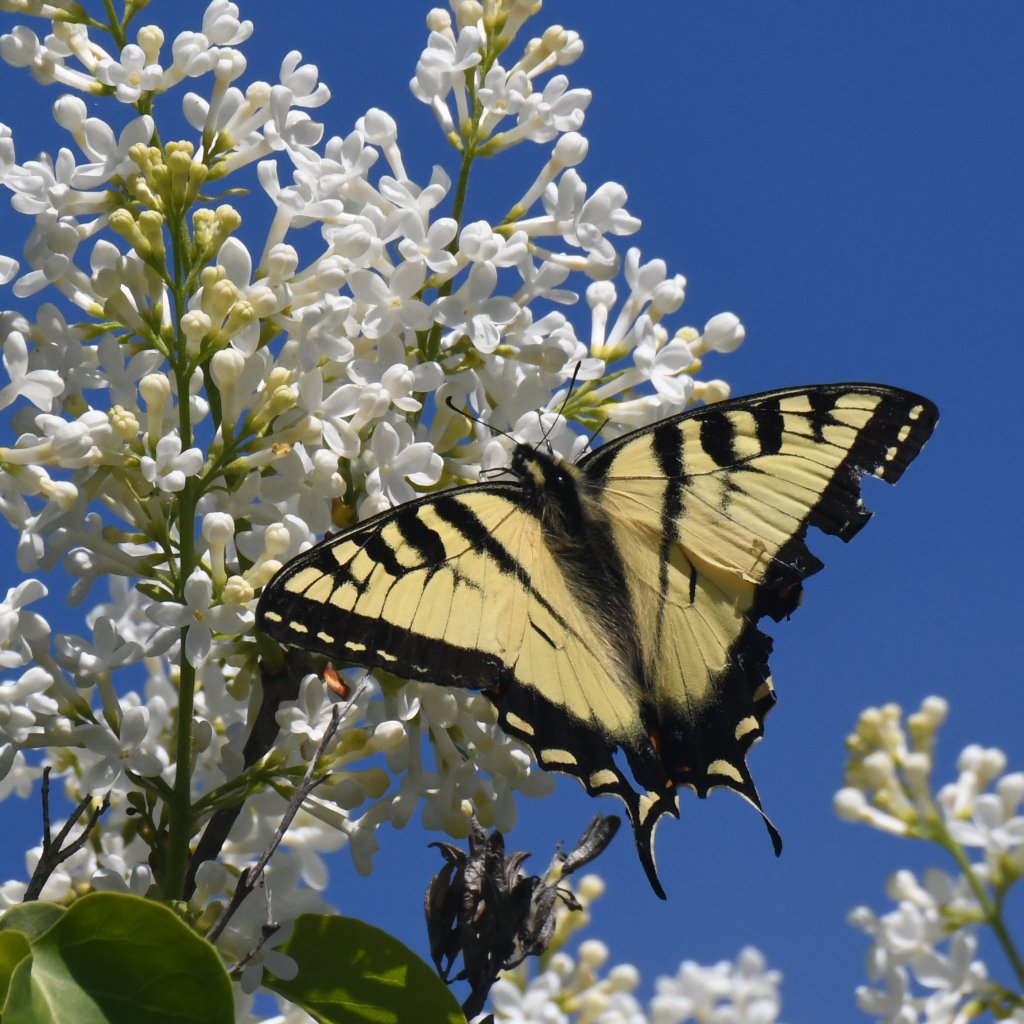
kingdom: Animalia
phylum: Arthropoda
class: Insecta
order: Lepidoptera
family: Papilionidae
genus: Pterourus
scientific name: Pterourus canadensis
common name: Canadian Tiger Swallowtail
